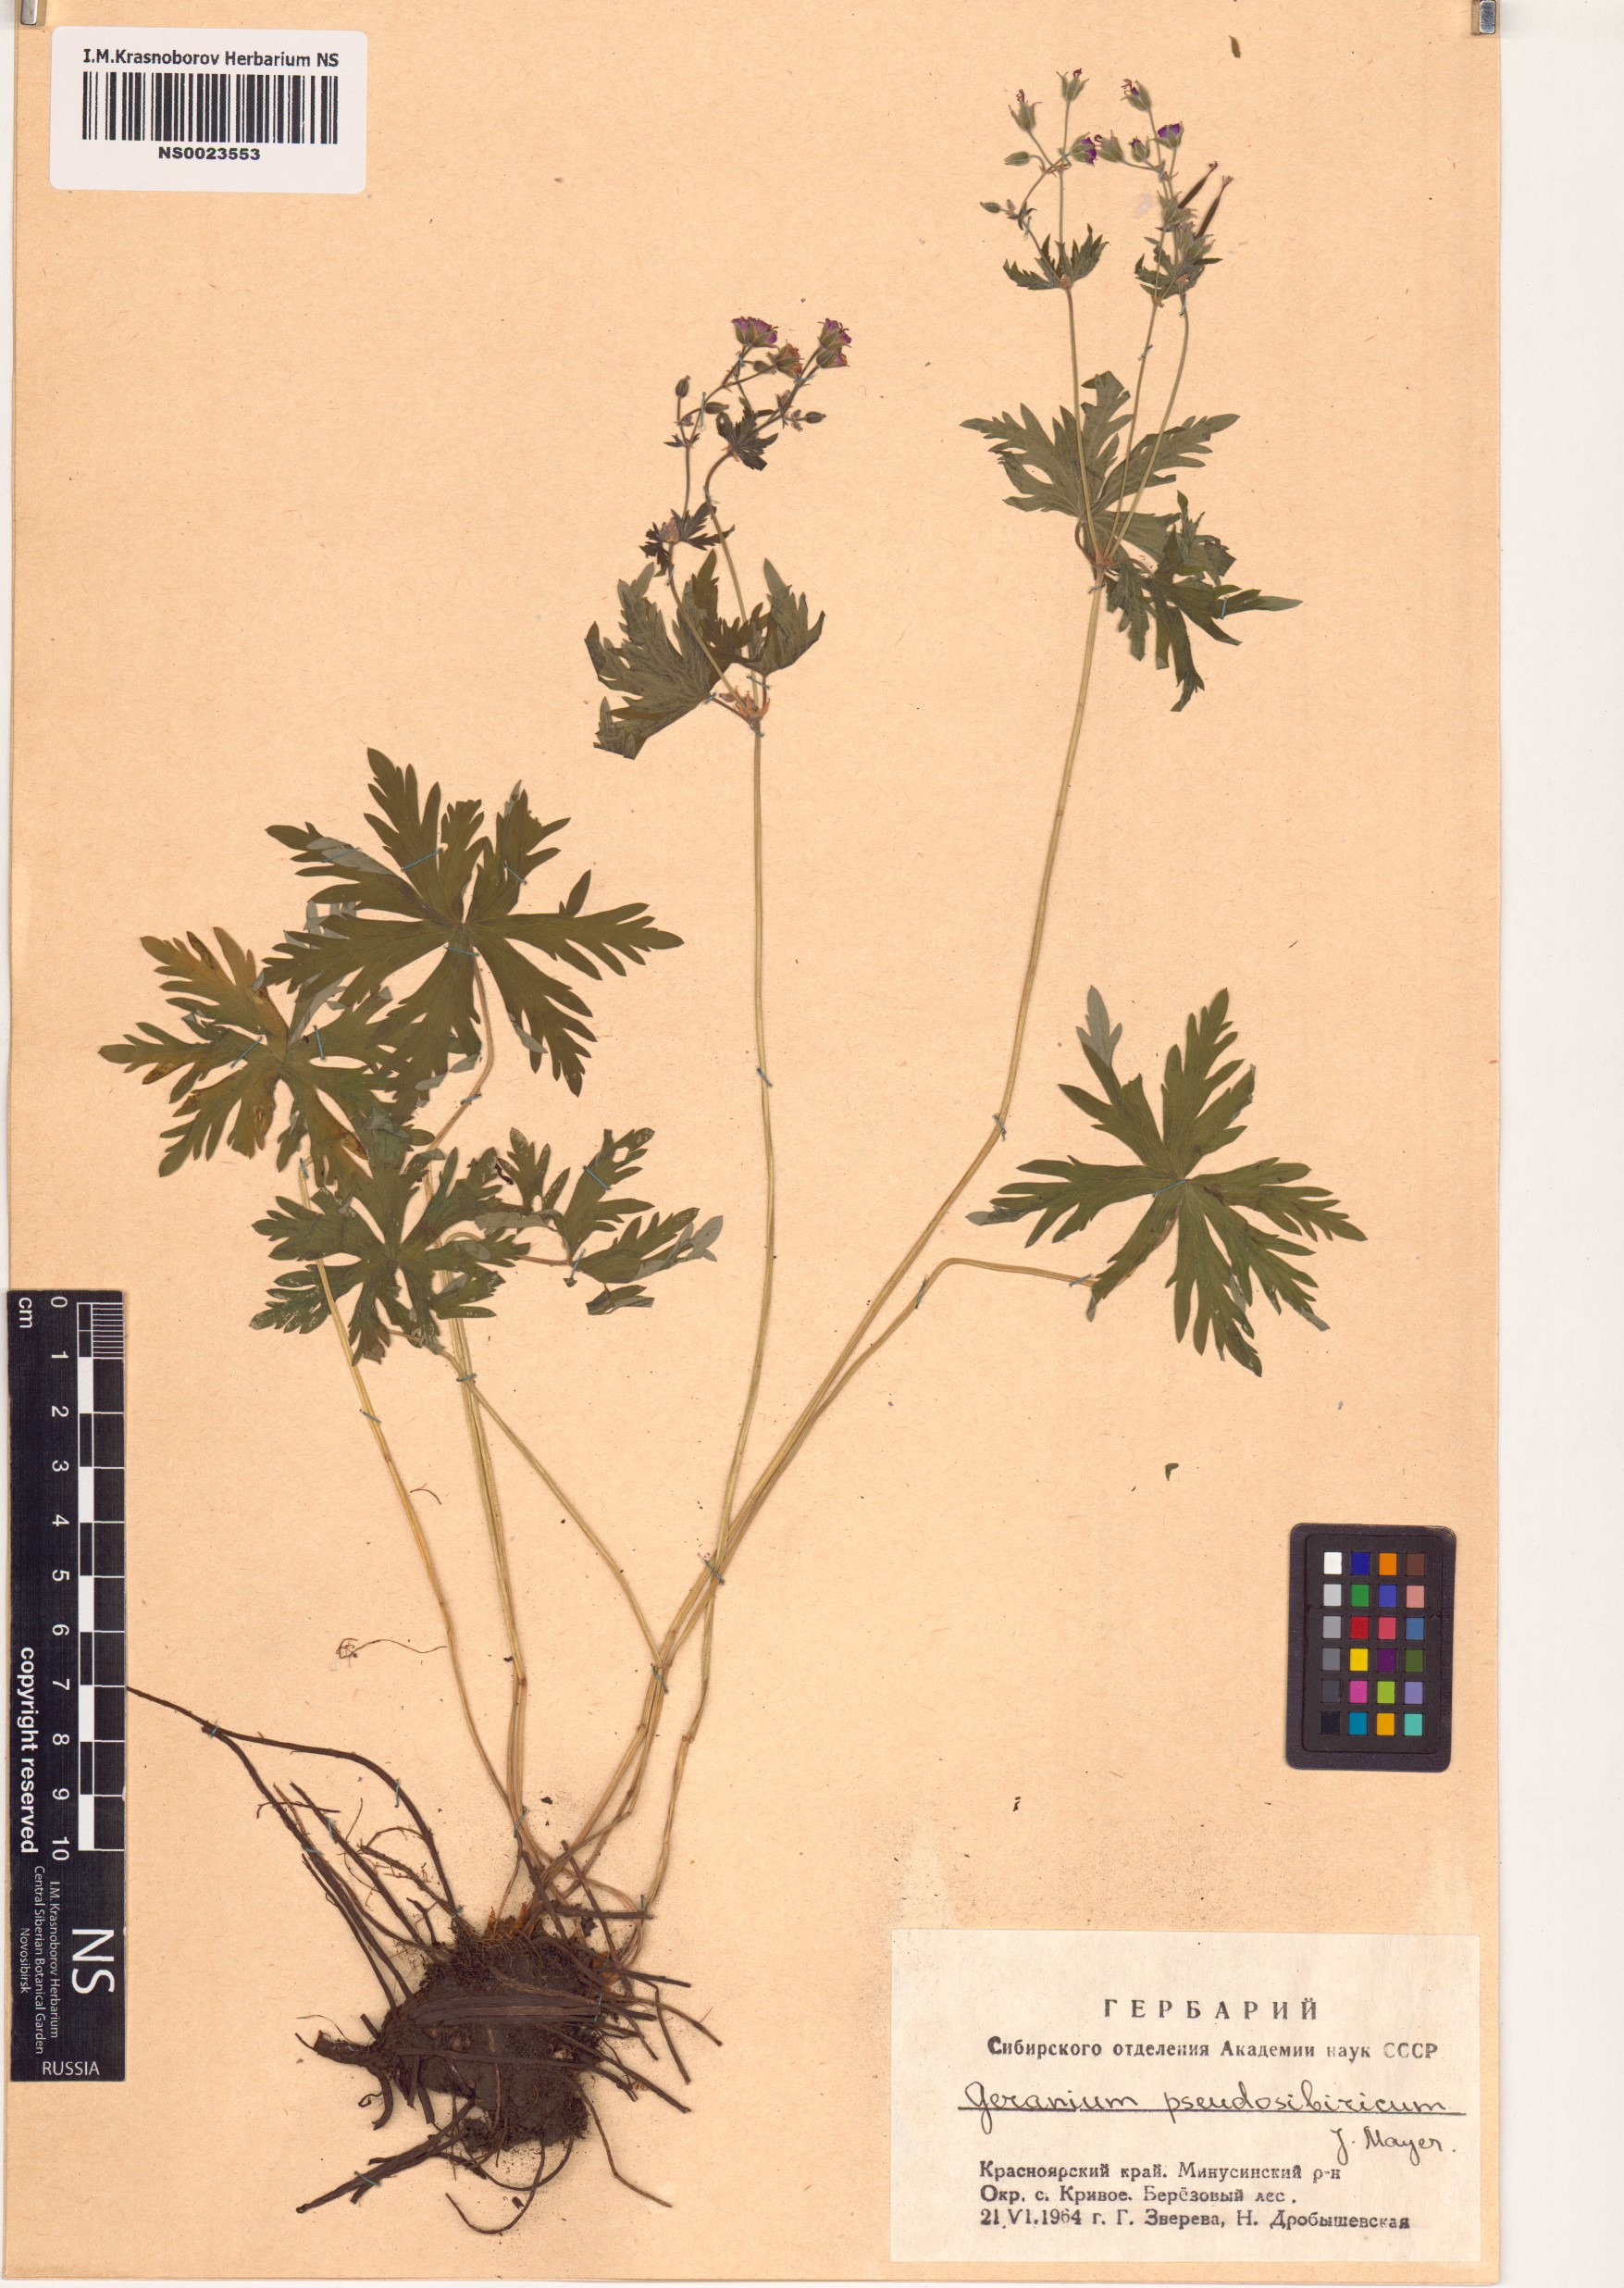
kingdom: Plantae
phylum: Tracheophyta
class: Magnoliopsida
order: Geraniales
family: Geraniaceae
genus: Geranium
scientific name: Geranium pseudosibiricum
